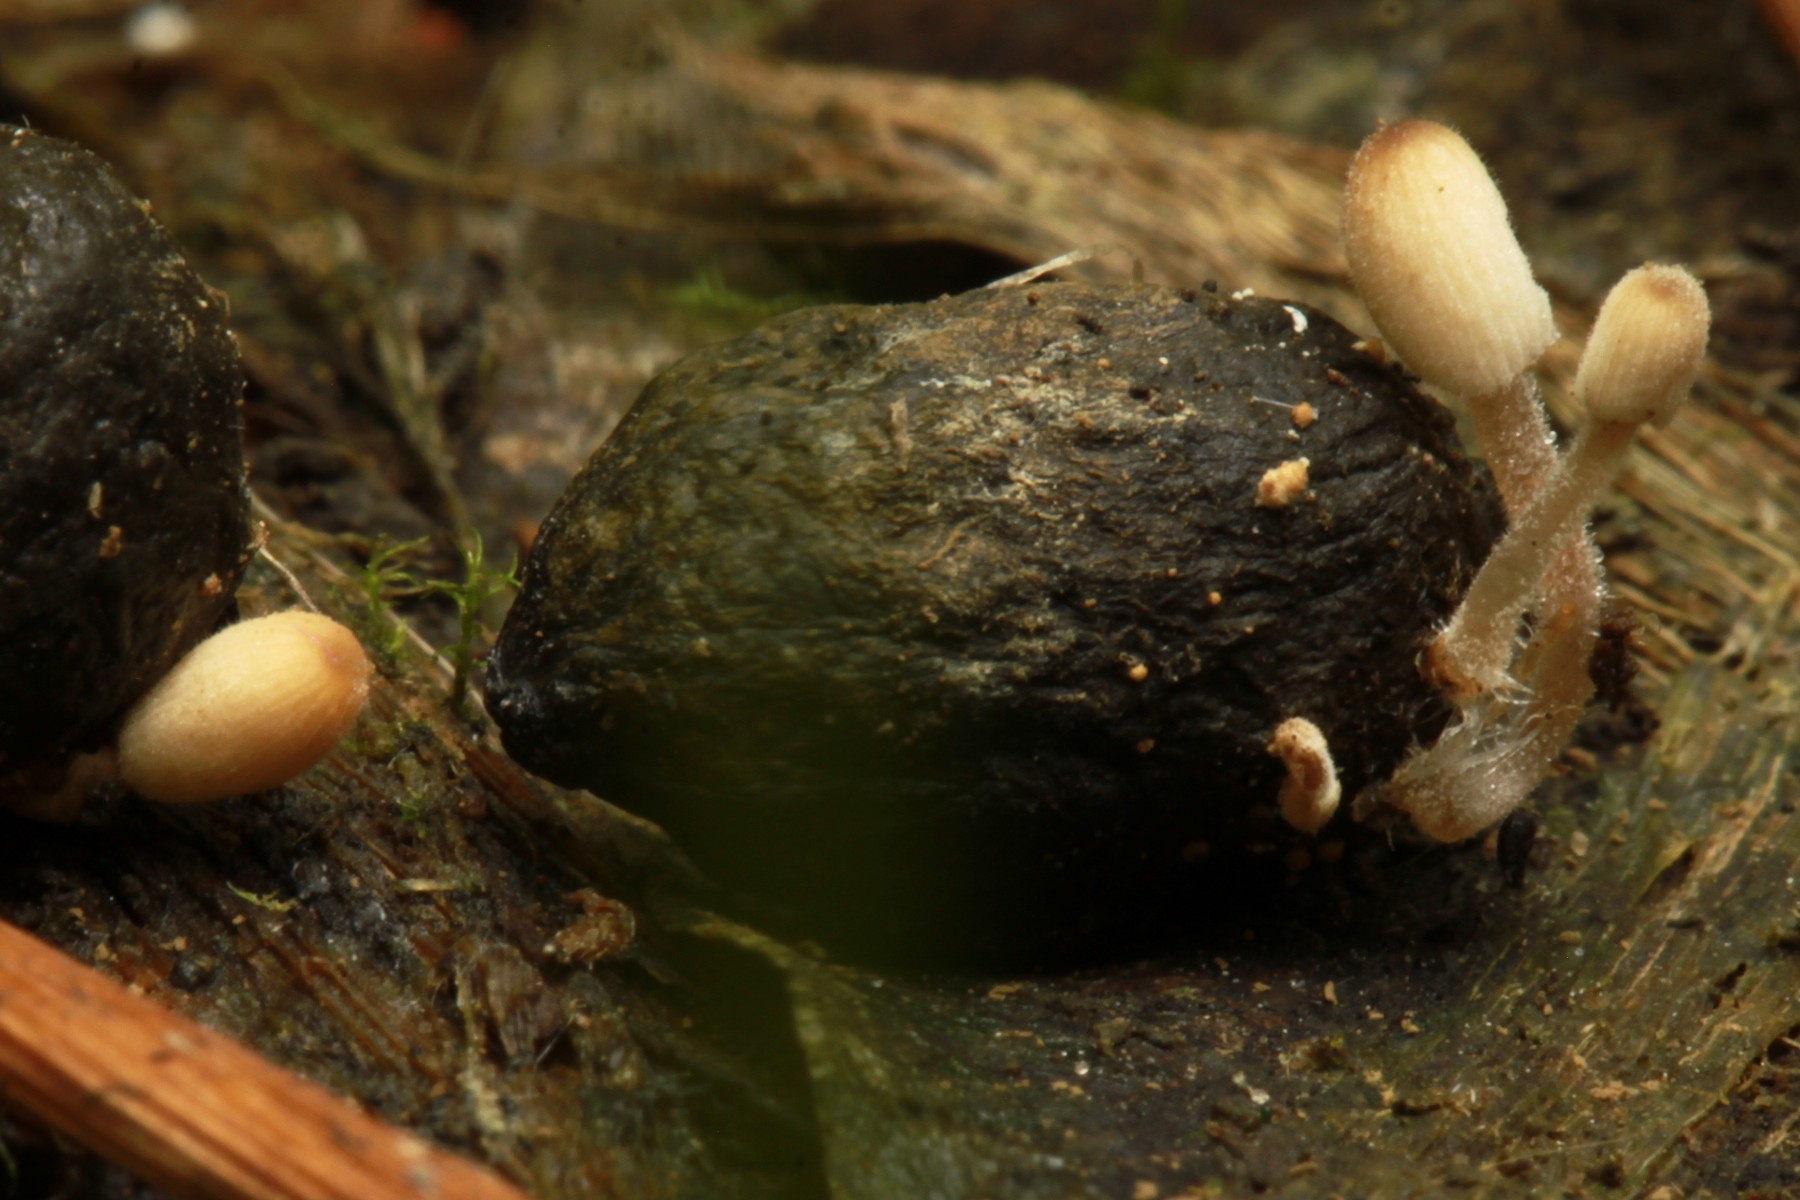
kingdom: Fungi
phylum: Basidiomycota
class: Agaricomycetes
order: Agaricales
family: Psathyrellaceae
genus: Coprinellus
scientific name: Coprinellus pusillulus
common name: lillebitte blækhat
